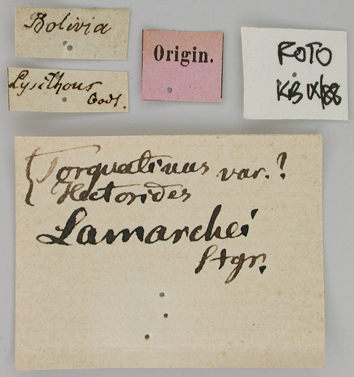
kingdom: Animalia
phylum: Arthropoda
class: Insecta
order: Lepidoptera
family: Papilionidae
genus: Papilio
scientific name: Papilio lamarchei
